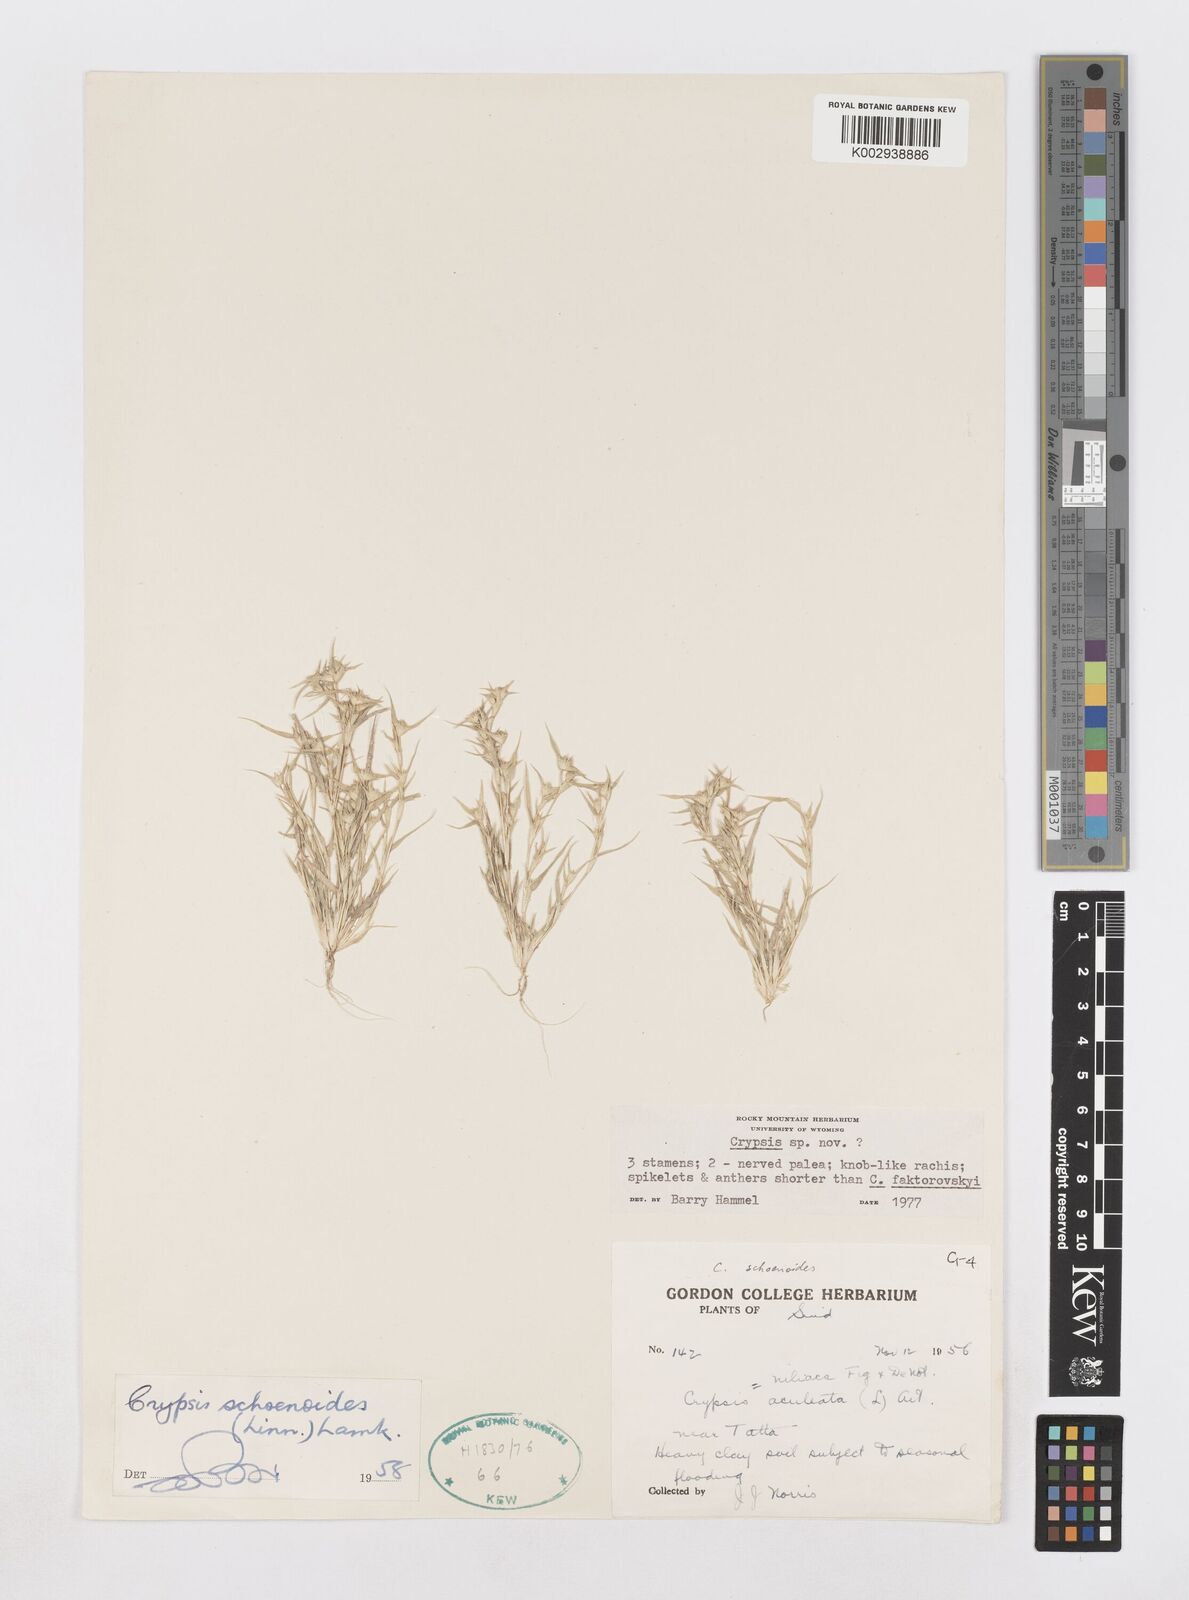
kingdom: Animalia
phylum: Arthropoda
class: Insecta
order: Coleoptera
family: Tenebrionidae
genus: Crypsis
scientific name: Crypsis
